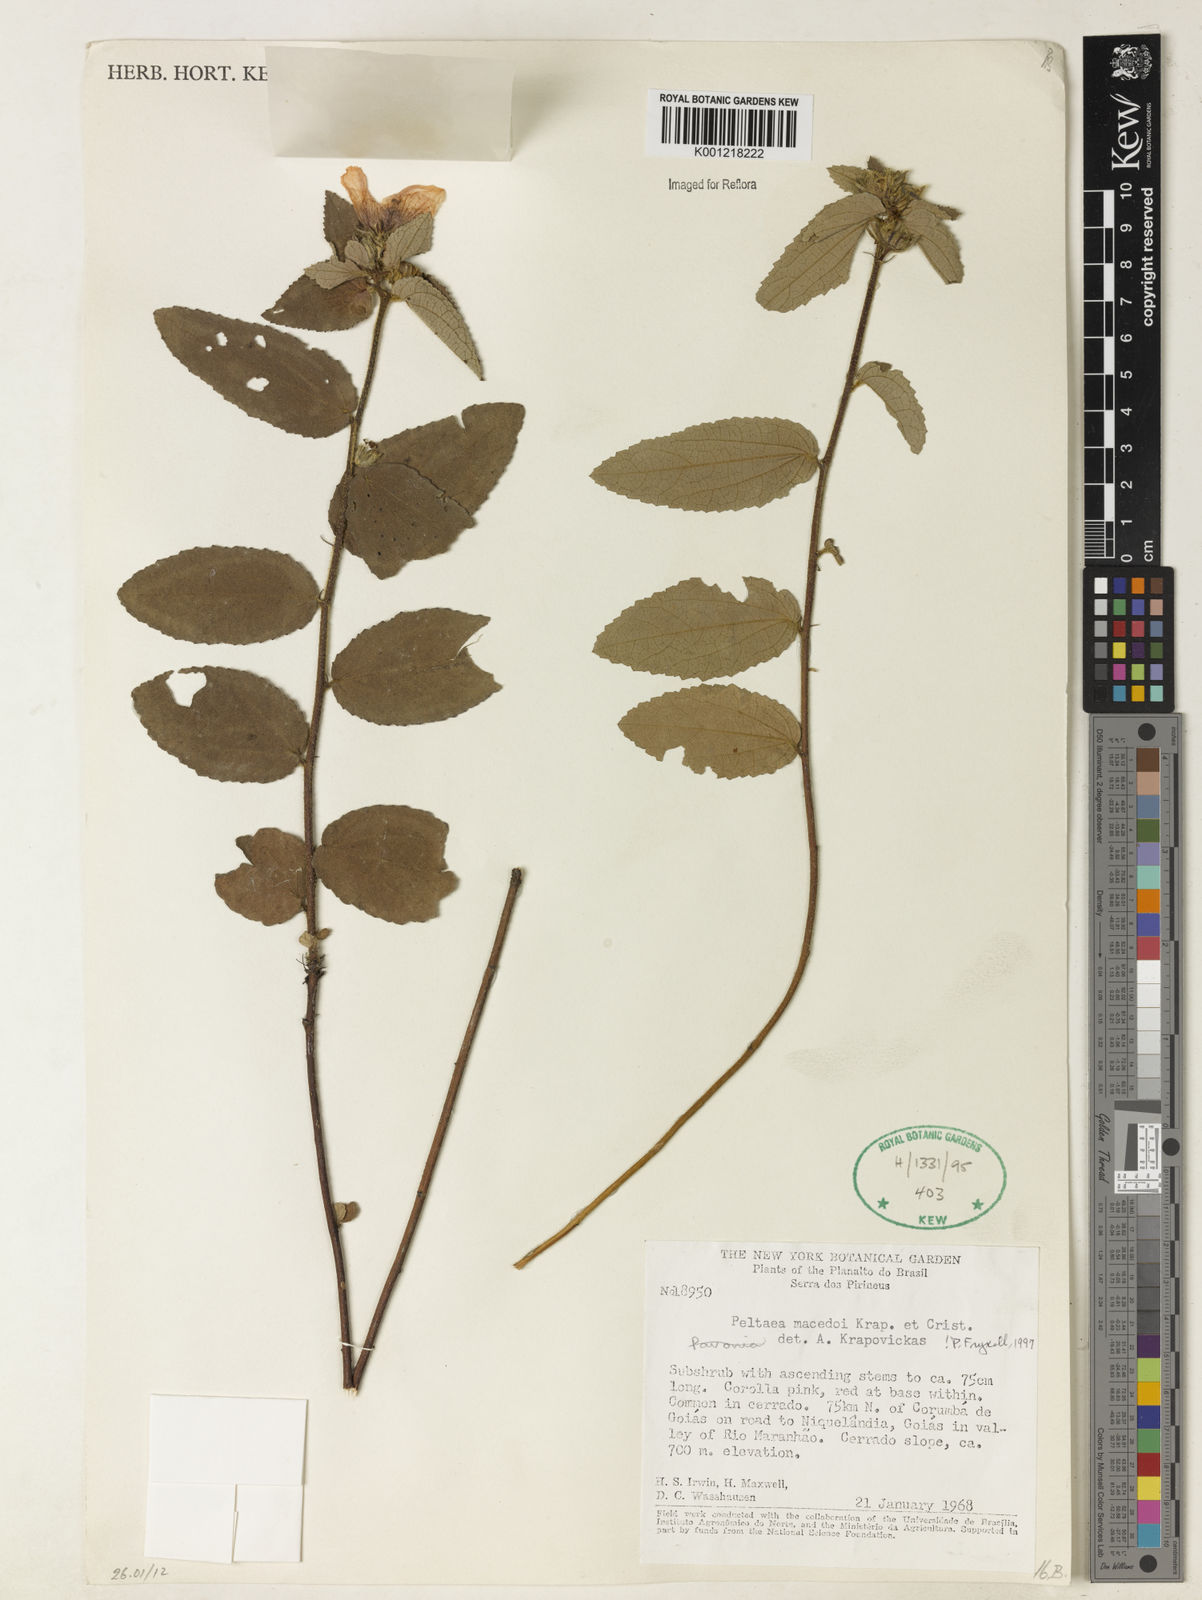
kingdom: Plantae
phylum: Tracheophyta
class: Magnoliopsida
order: Malvales
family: Malvaceae
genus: Peltaea
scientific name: Peltaea
